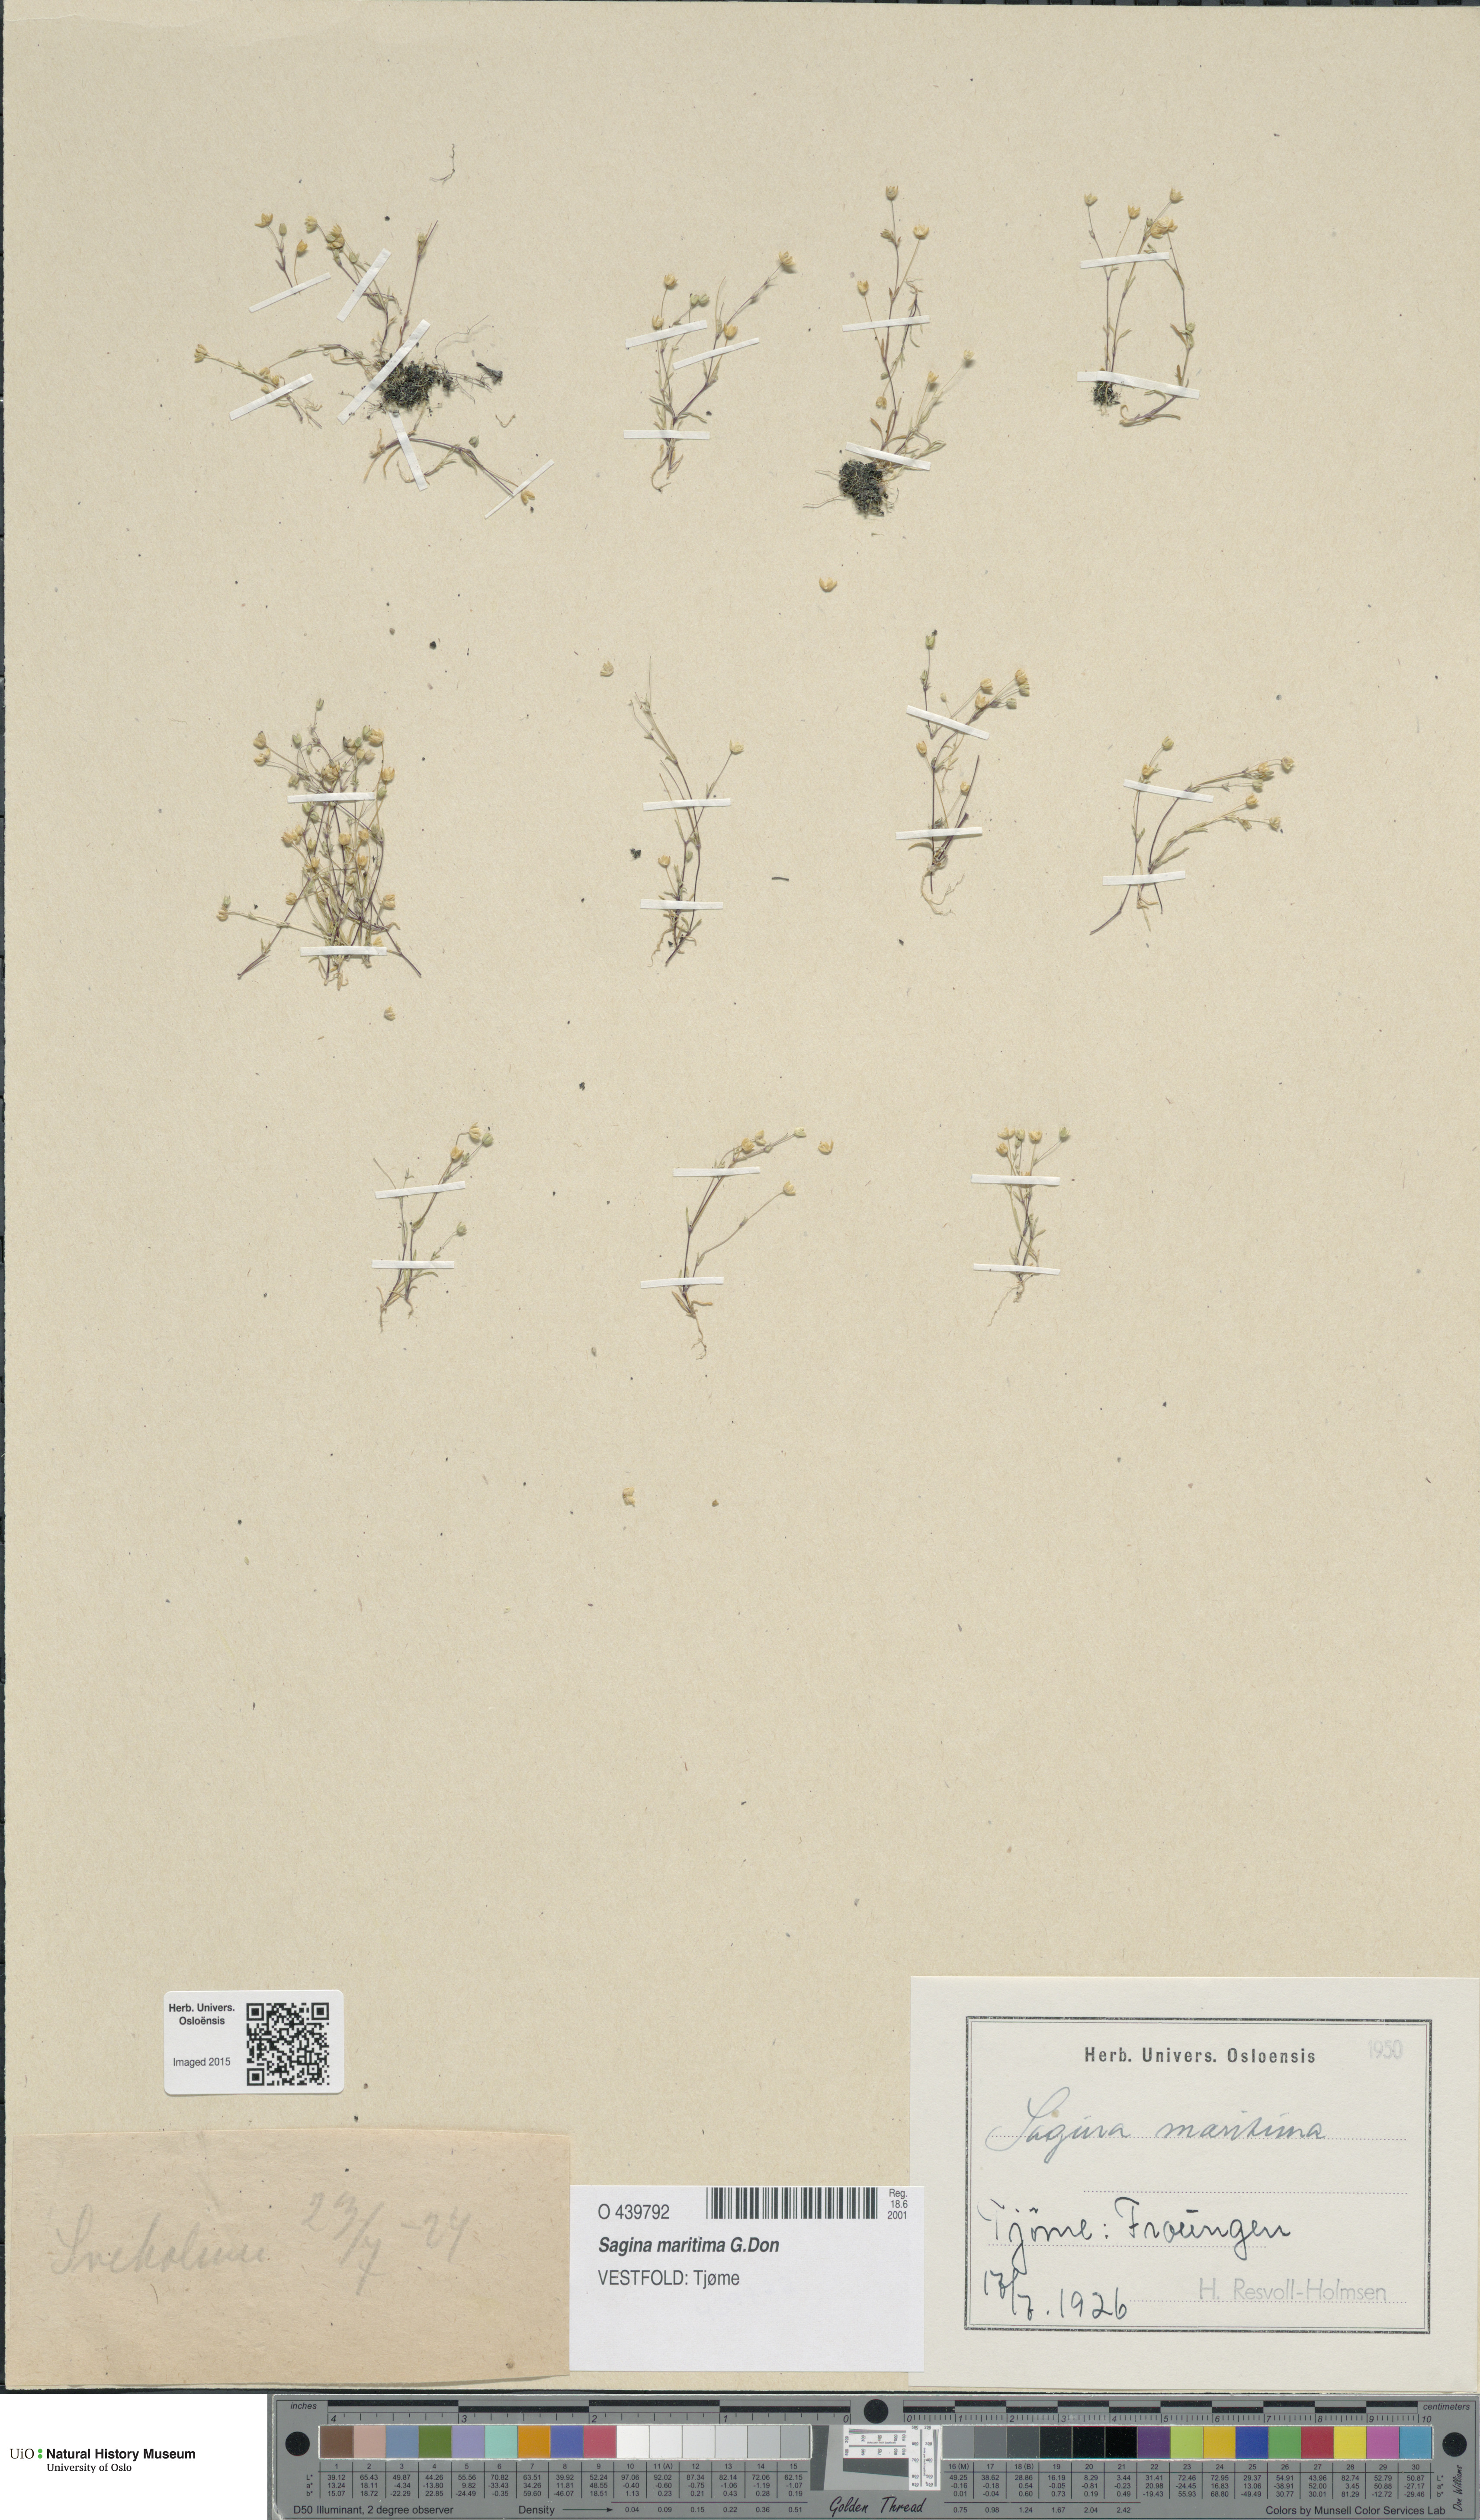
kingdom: Plantae
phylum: Tracheophyta
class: Magnoliopsida
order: Caryophyllales
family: Caryophyllaceae
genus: Sagina
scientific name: Sagina maritima
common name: Sea pearlwort
